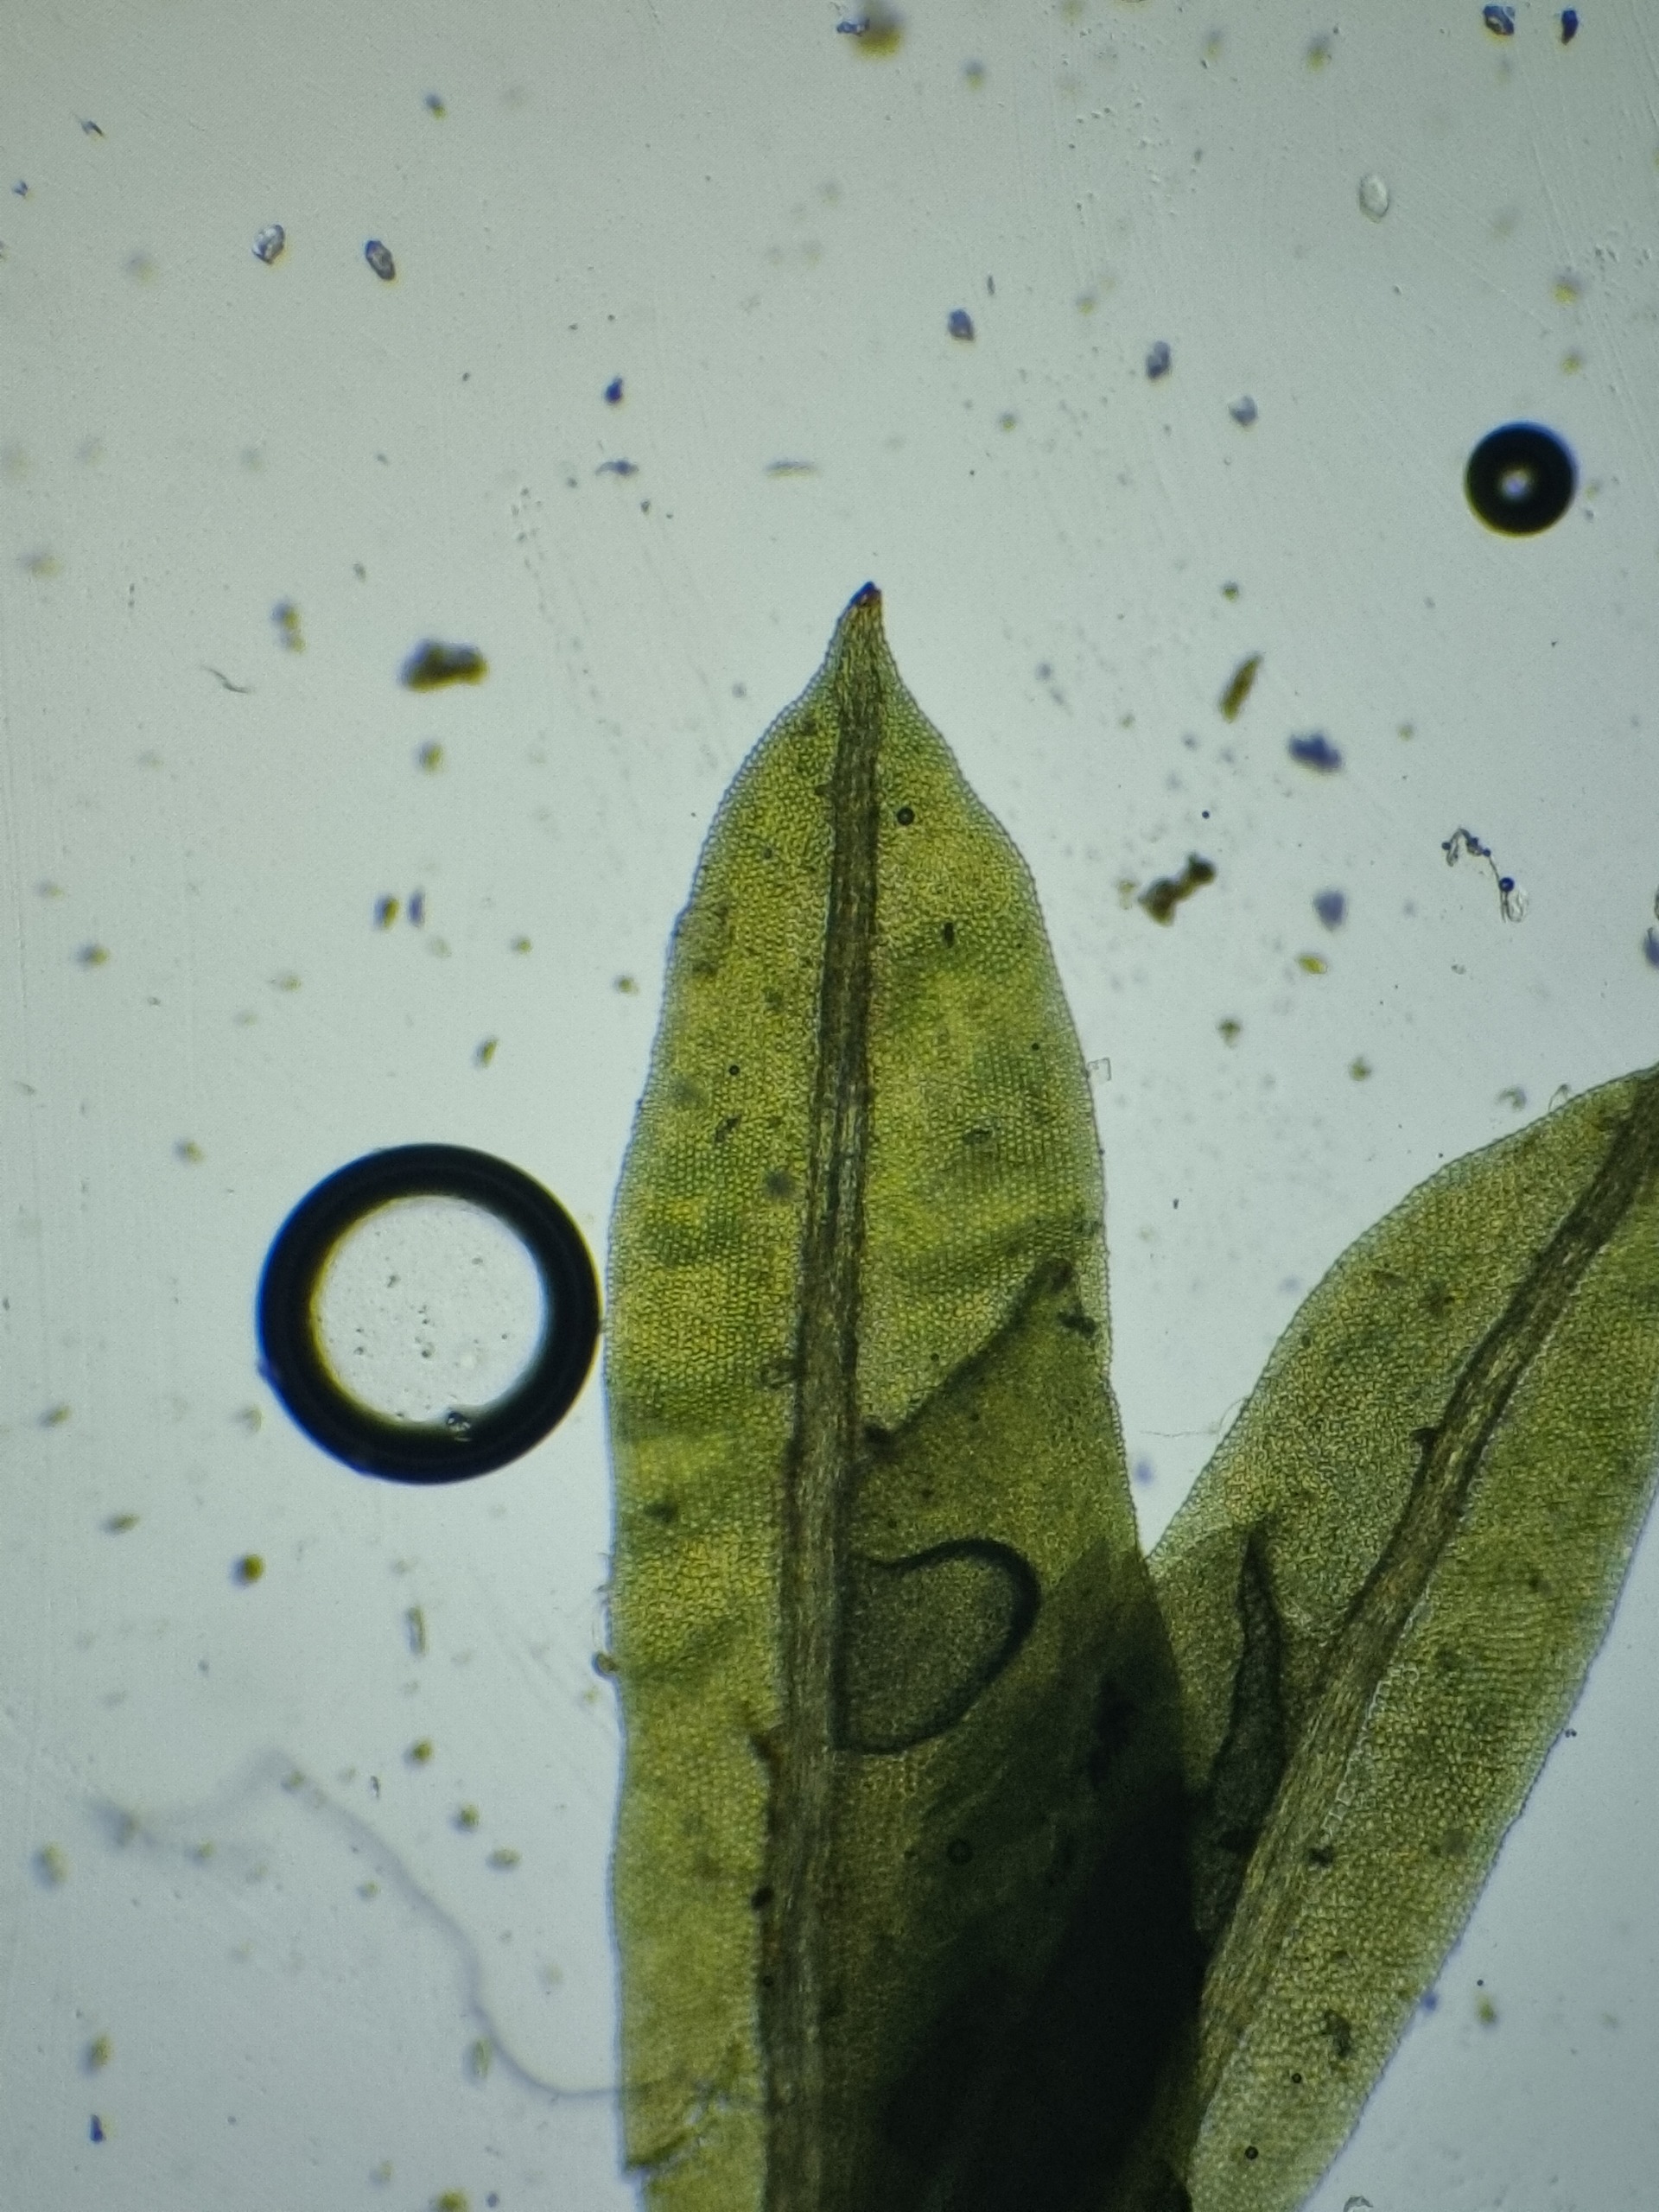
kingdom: Plantae
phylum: Bryophyta
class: Bryopsida
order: Dicranales
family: Fissidentaceae
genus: Fissidens
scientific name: Fissidens taxifolius
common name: Taksbladet rademos
